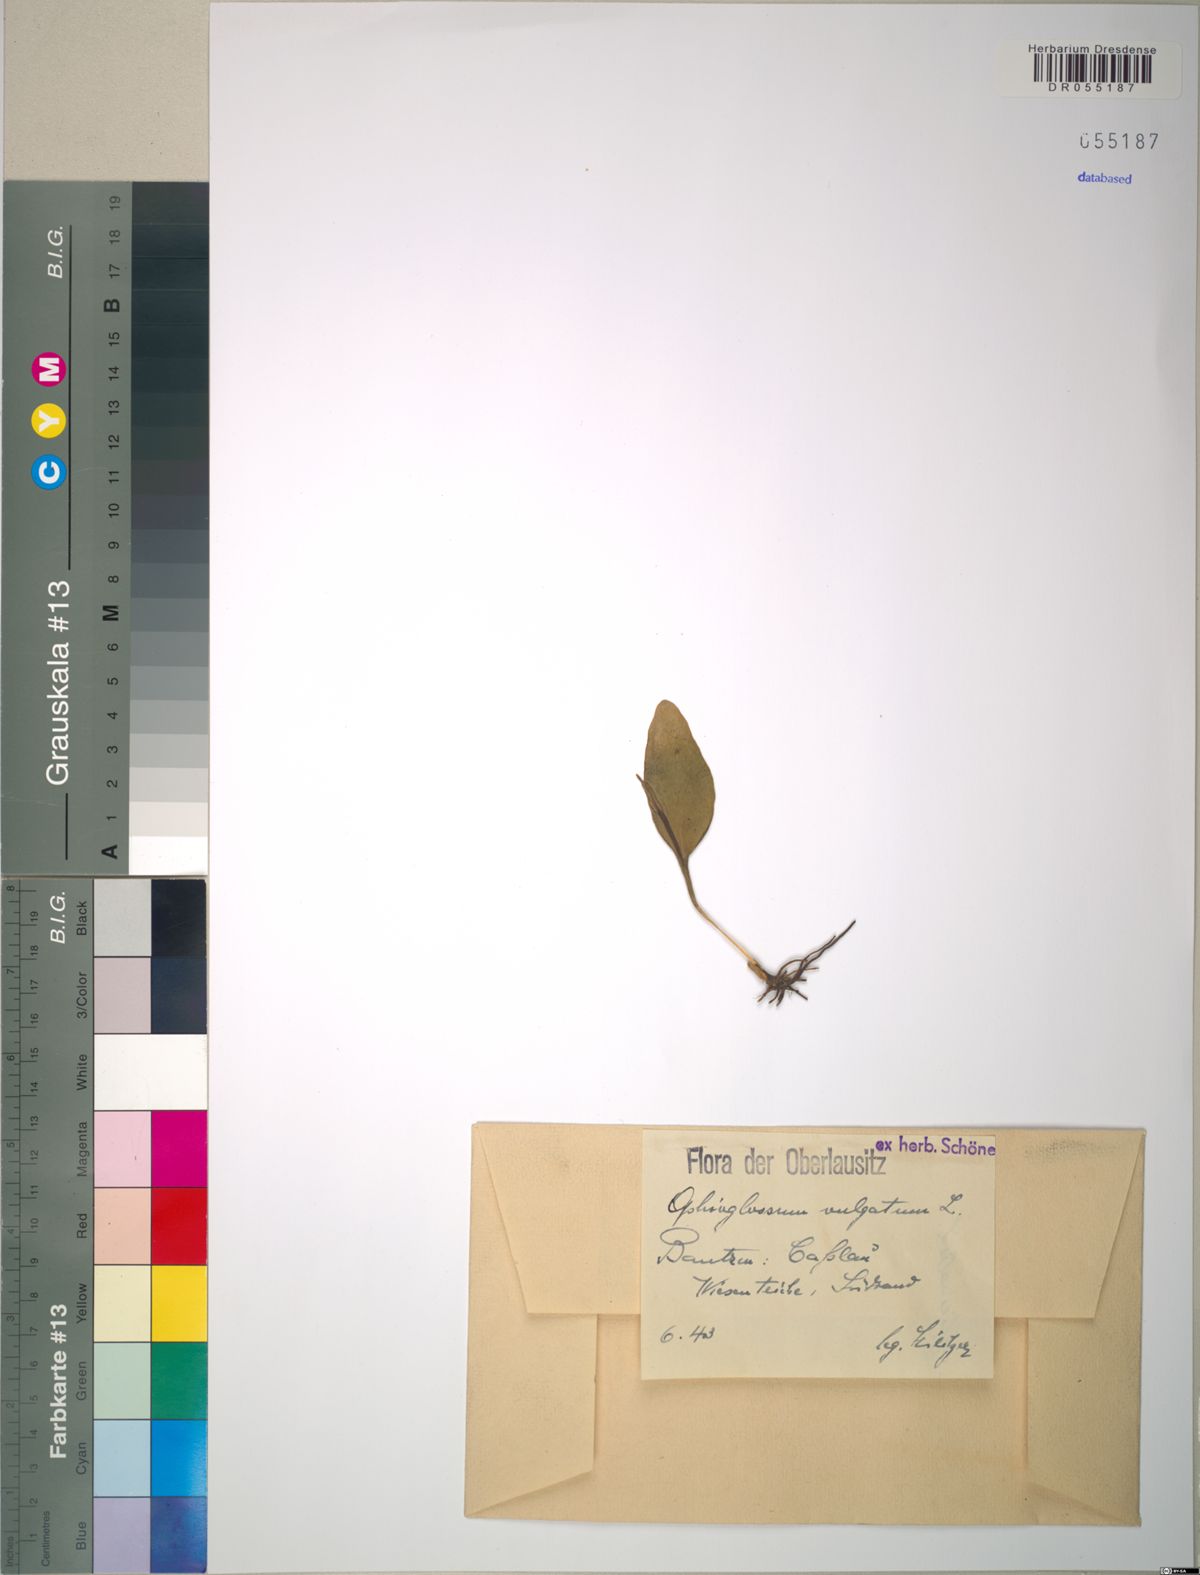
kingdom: Plantae
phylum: Tracheophyta
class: Polypodiopsida
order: Ophioglossales
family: Ophioglossaceae
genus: Ophioglossum
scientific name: Ophioglossum vulgatum
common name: Adder's-tongue
